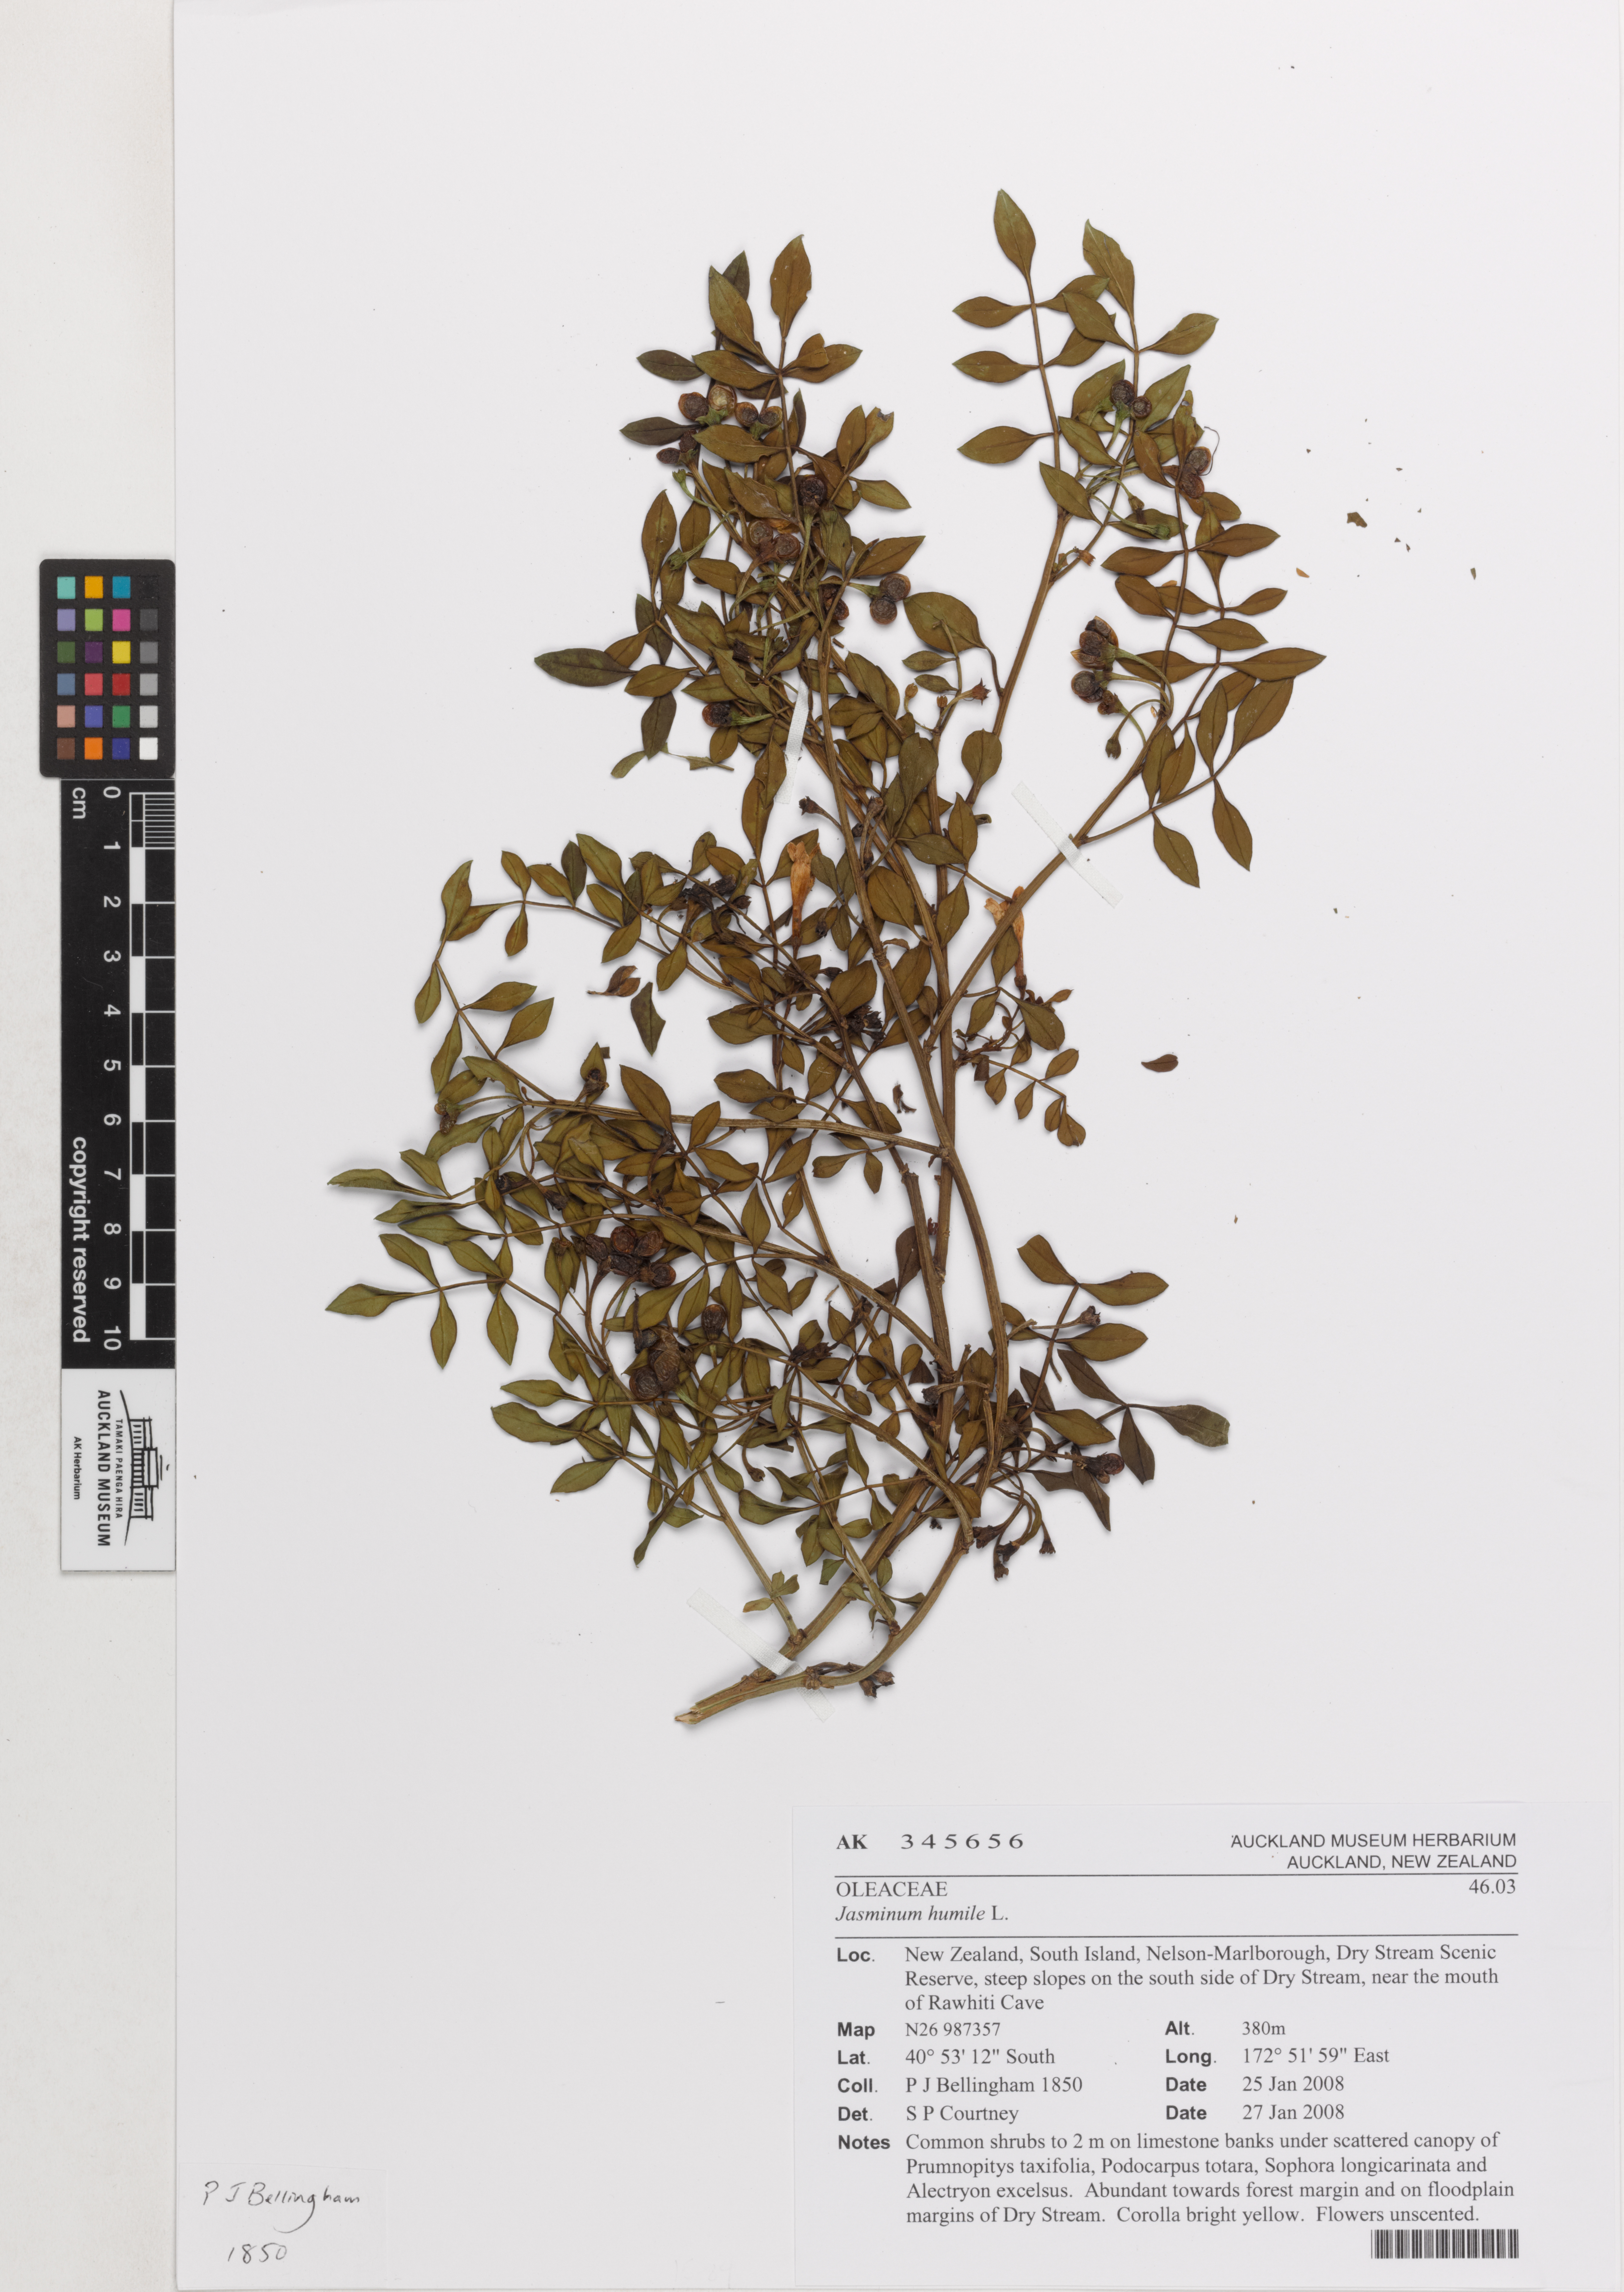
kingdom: Plantae
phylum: Tracheophyta
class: Magnoliopsida
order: Lamiales
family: Oleaceae
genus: Chrysojasminum
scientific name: Chrysojasminum humile
